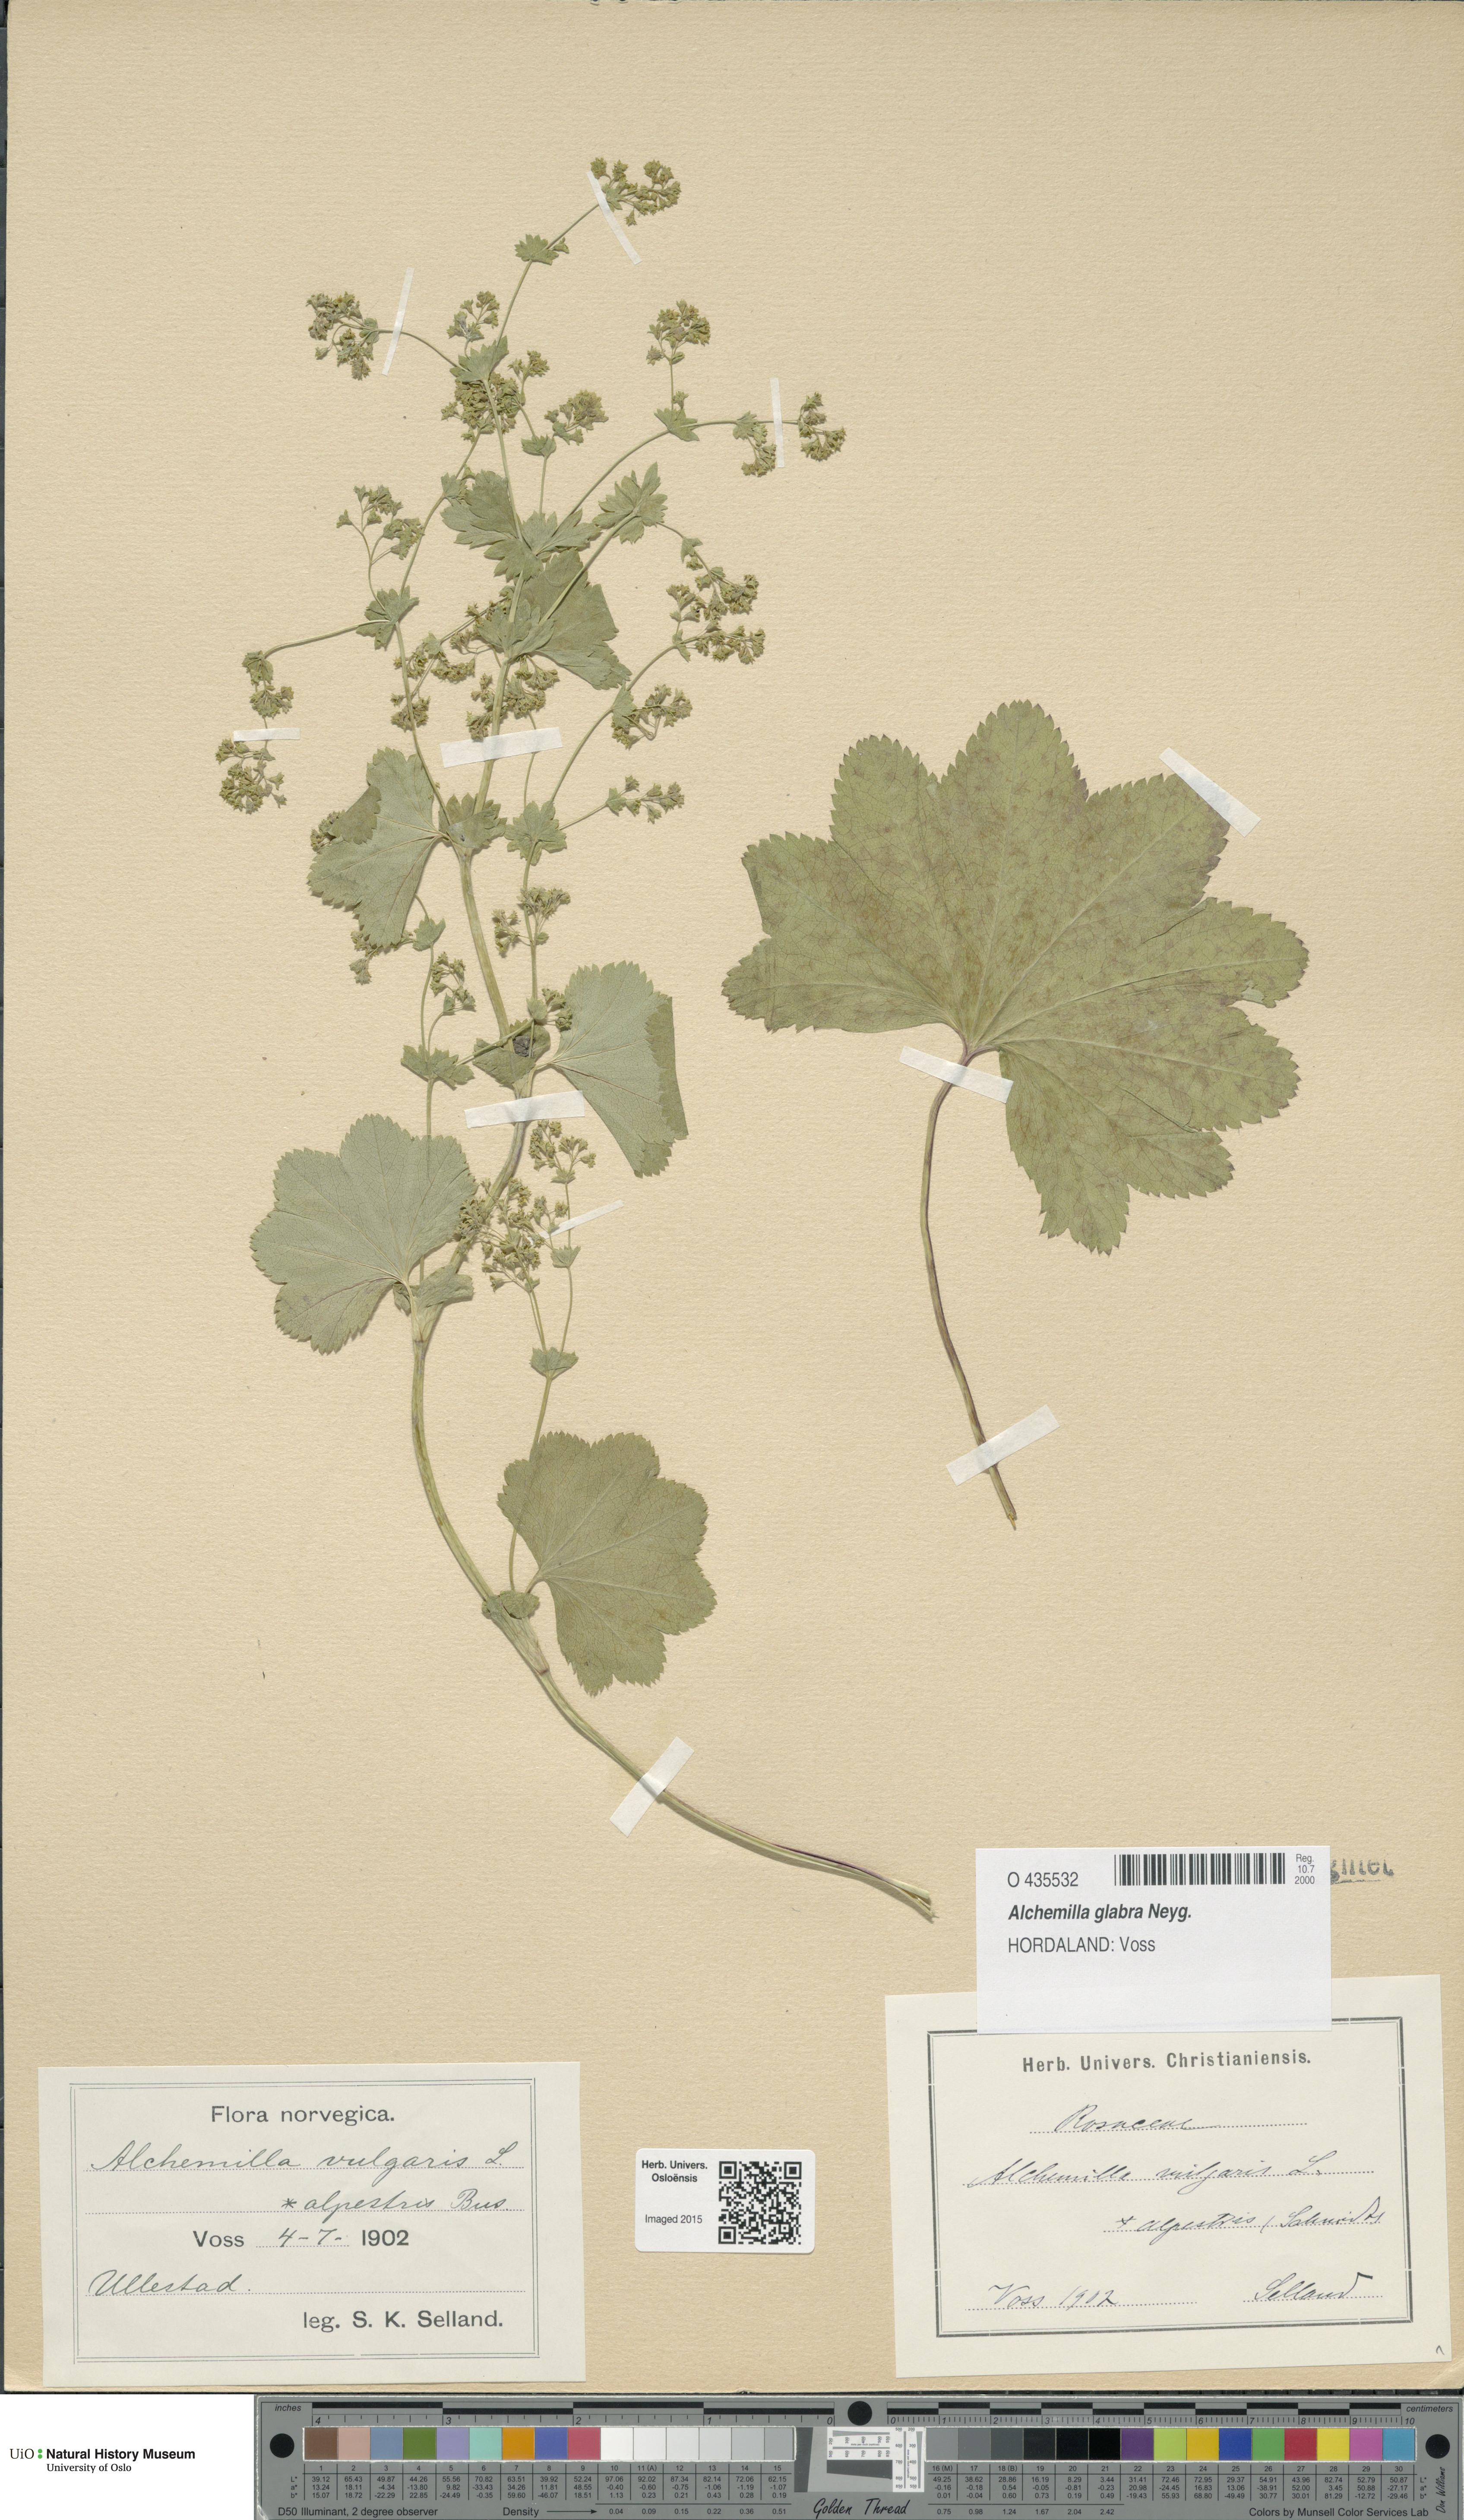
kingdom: Plantae
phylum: Tracheophyta
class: Magnoliopsida
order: Rosales
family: Rosaceae
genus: Alchemilla
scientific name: Alchemilla glabra
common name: Smooth lady's-mantle
